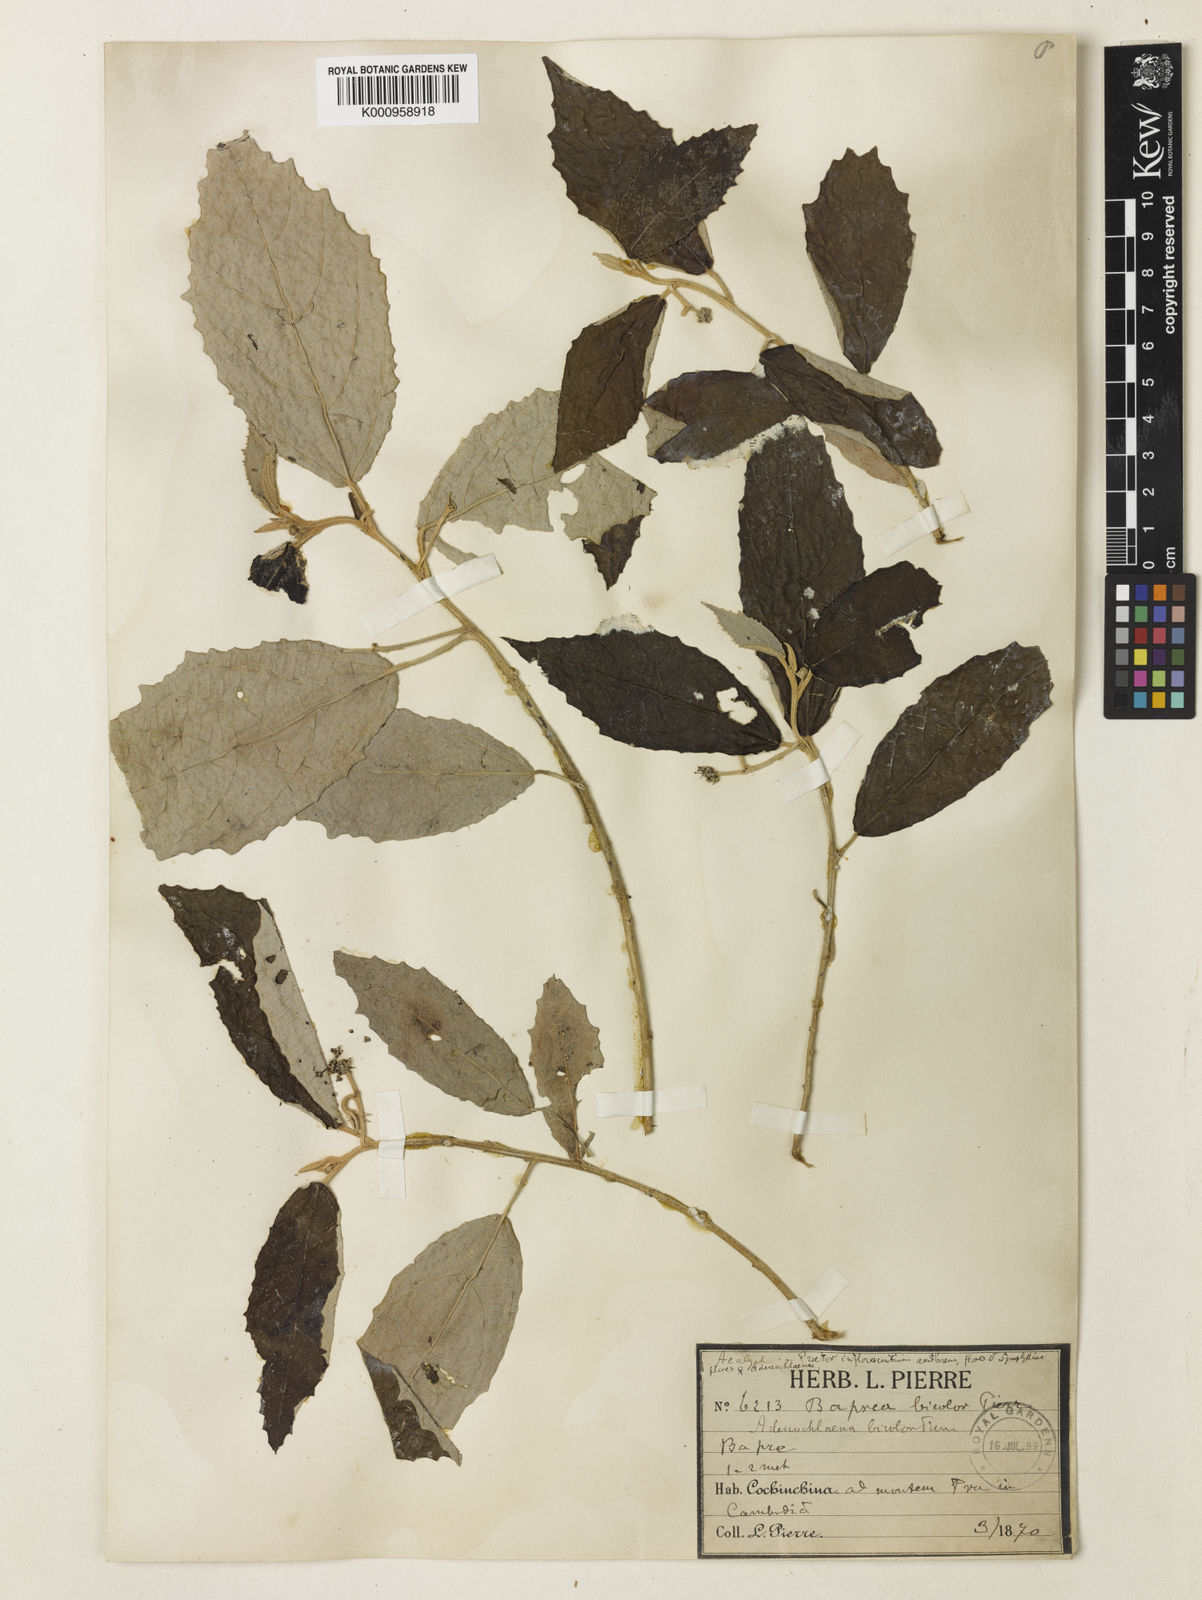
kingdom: Plantae
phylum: Tracheophyta
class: Magnoliopsida
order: Malpighiales
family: Euphorbiaceae
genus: Cladogynos
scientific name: Cladogynos orientalis
